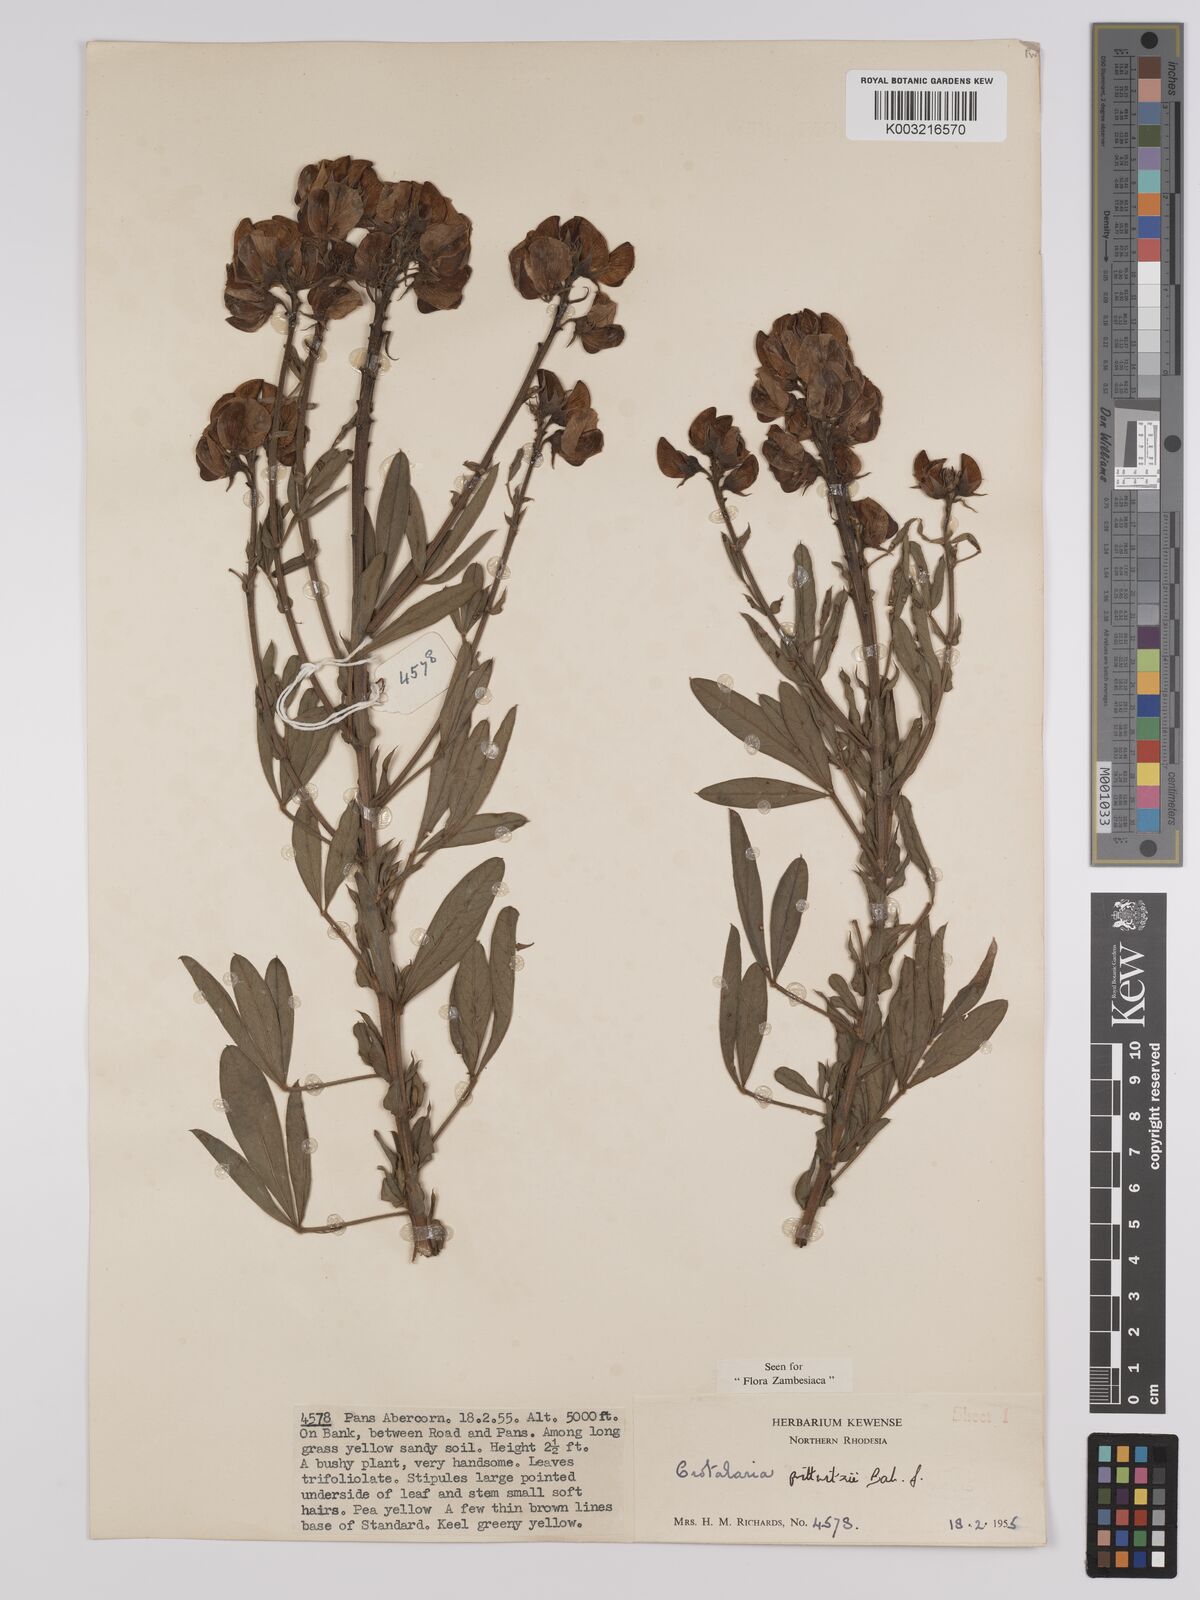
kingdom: Plantae
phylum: Tracheophyta
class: Magnoliopsida
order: Fabales
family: Fabaceae
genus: Crotalaria
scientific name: Crotalaria prittwitzii
